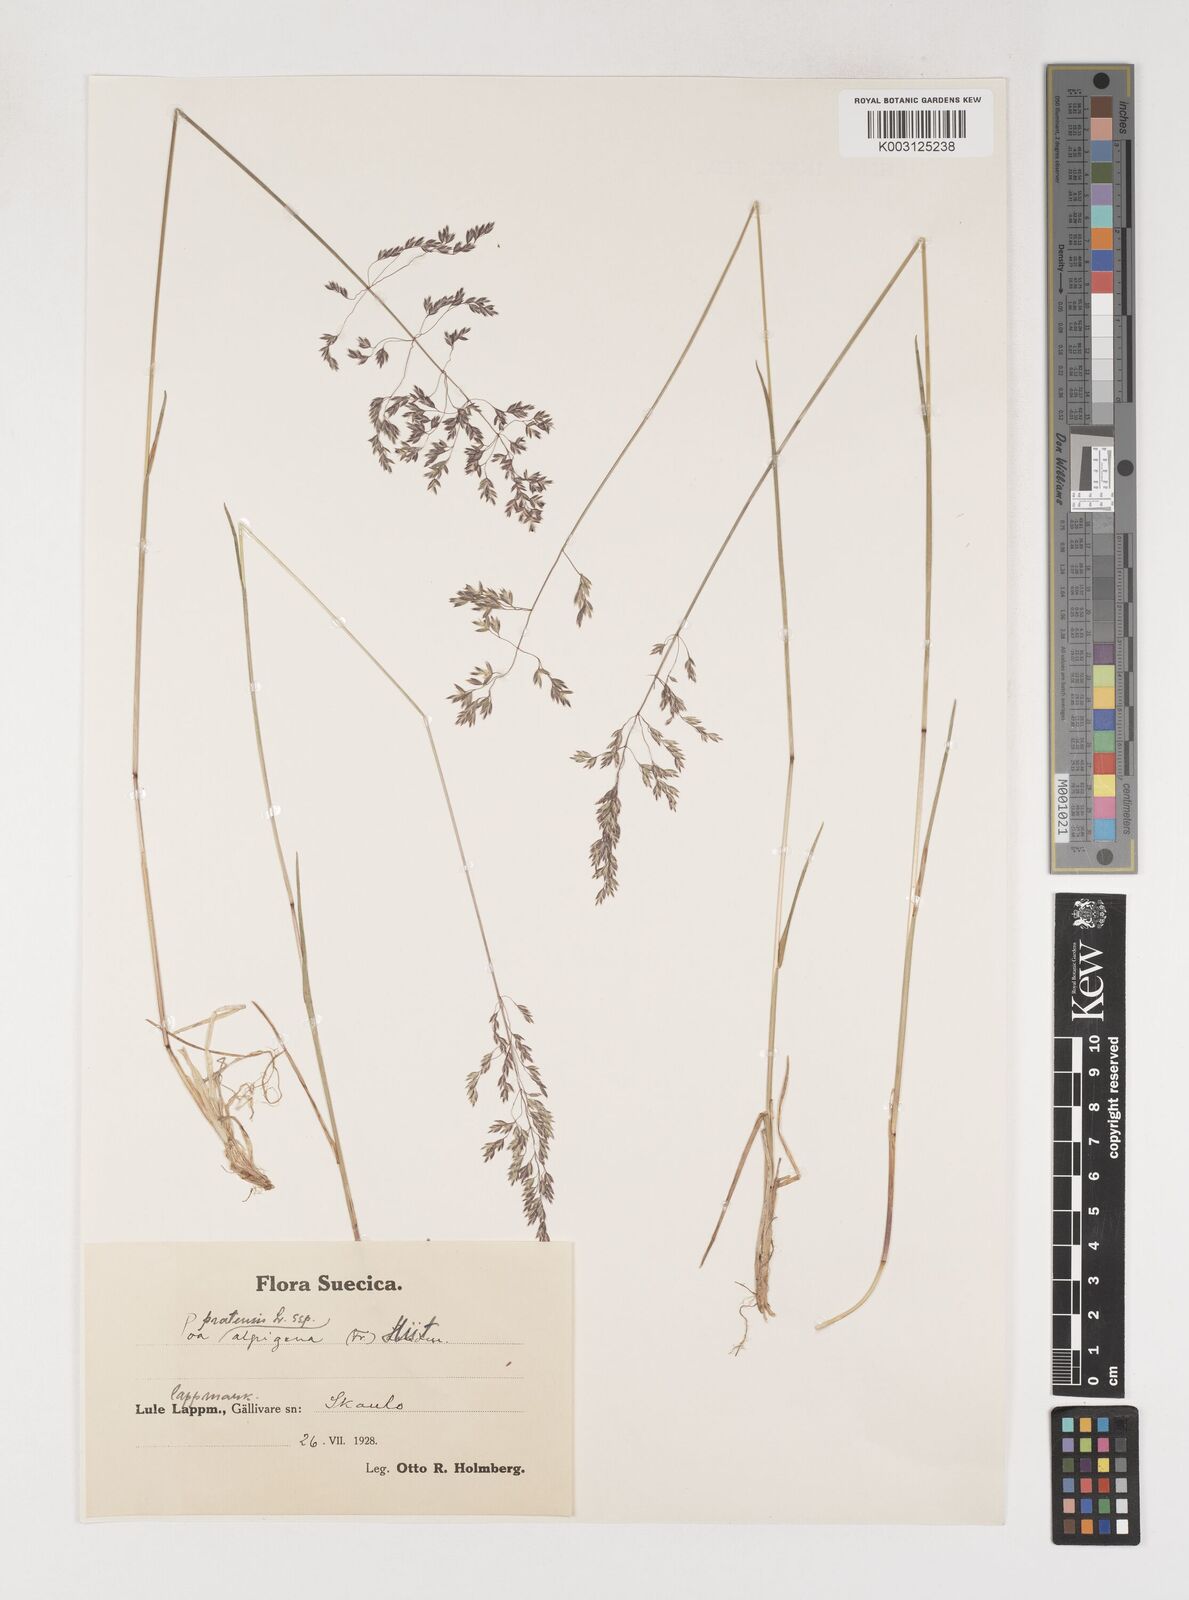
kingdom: Plantae
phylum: Tracheophyta
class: Liliopsida
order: Poales
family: Poaceae
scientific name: Poaceae
